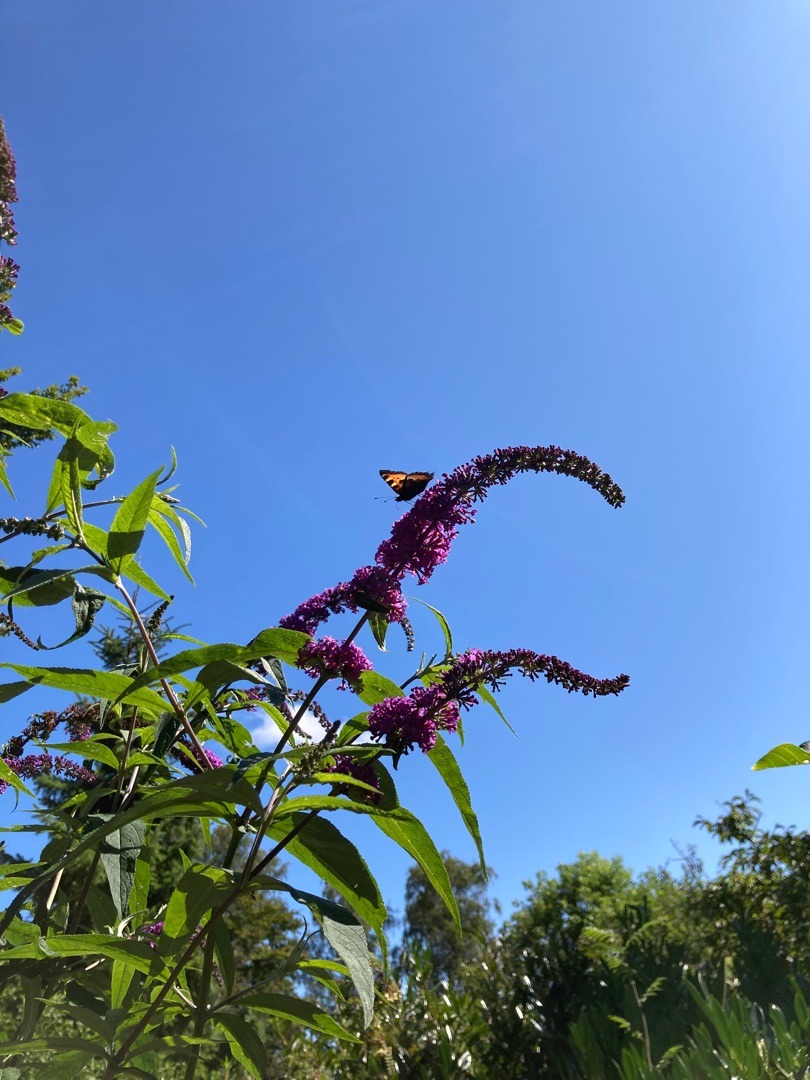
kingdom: Animalia
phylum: Arthropoda
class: Insecta
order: Lepidoptera
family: Nymphalidae
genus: Aglais
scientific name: Aglais urticae
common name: Nældens takvinge
